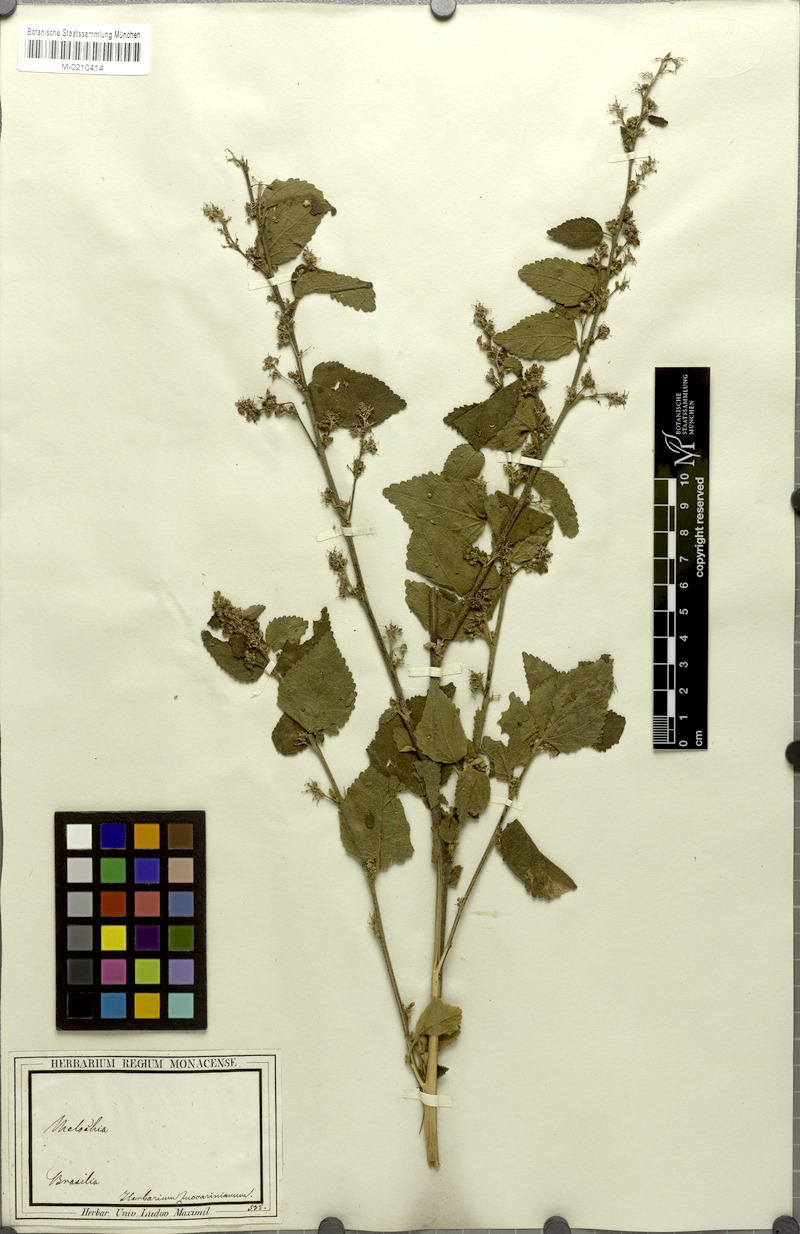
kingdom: Plantae
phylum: Tracheophyta
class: Magnoliopsida
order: Malvales
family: Malvaceae
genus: Sidastrum
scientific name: Sidastrum micranthum
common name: Dainty sandmallow
